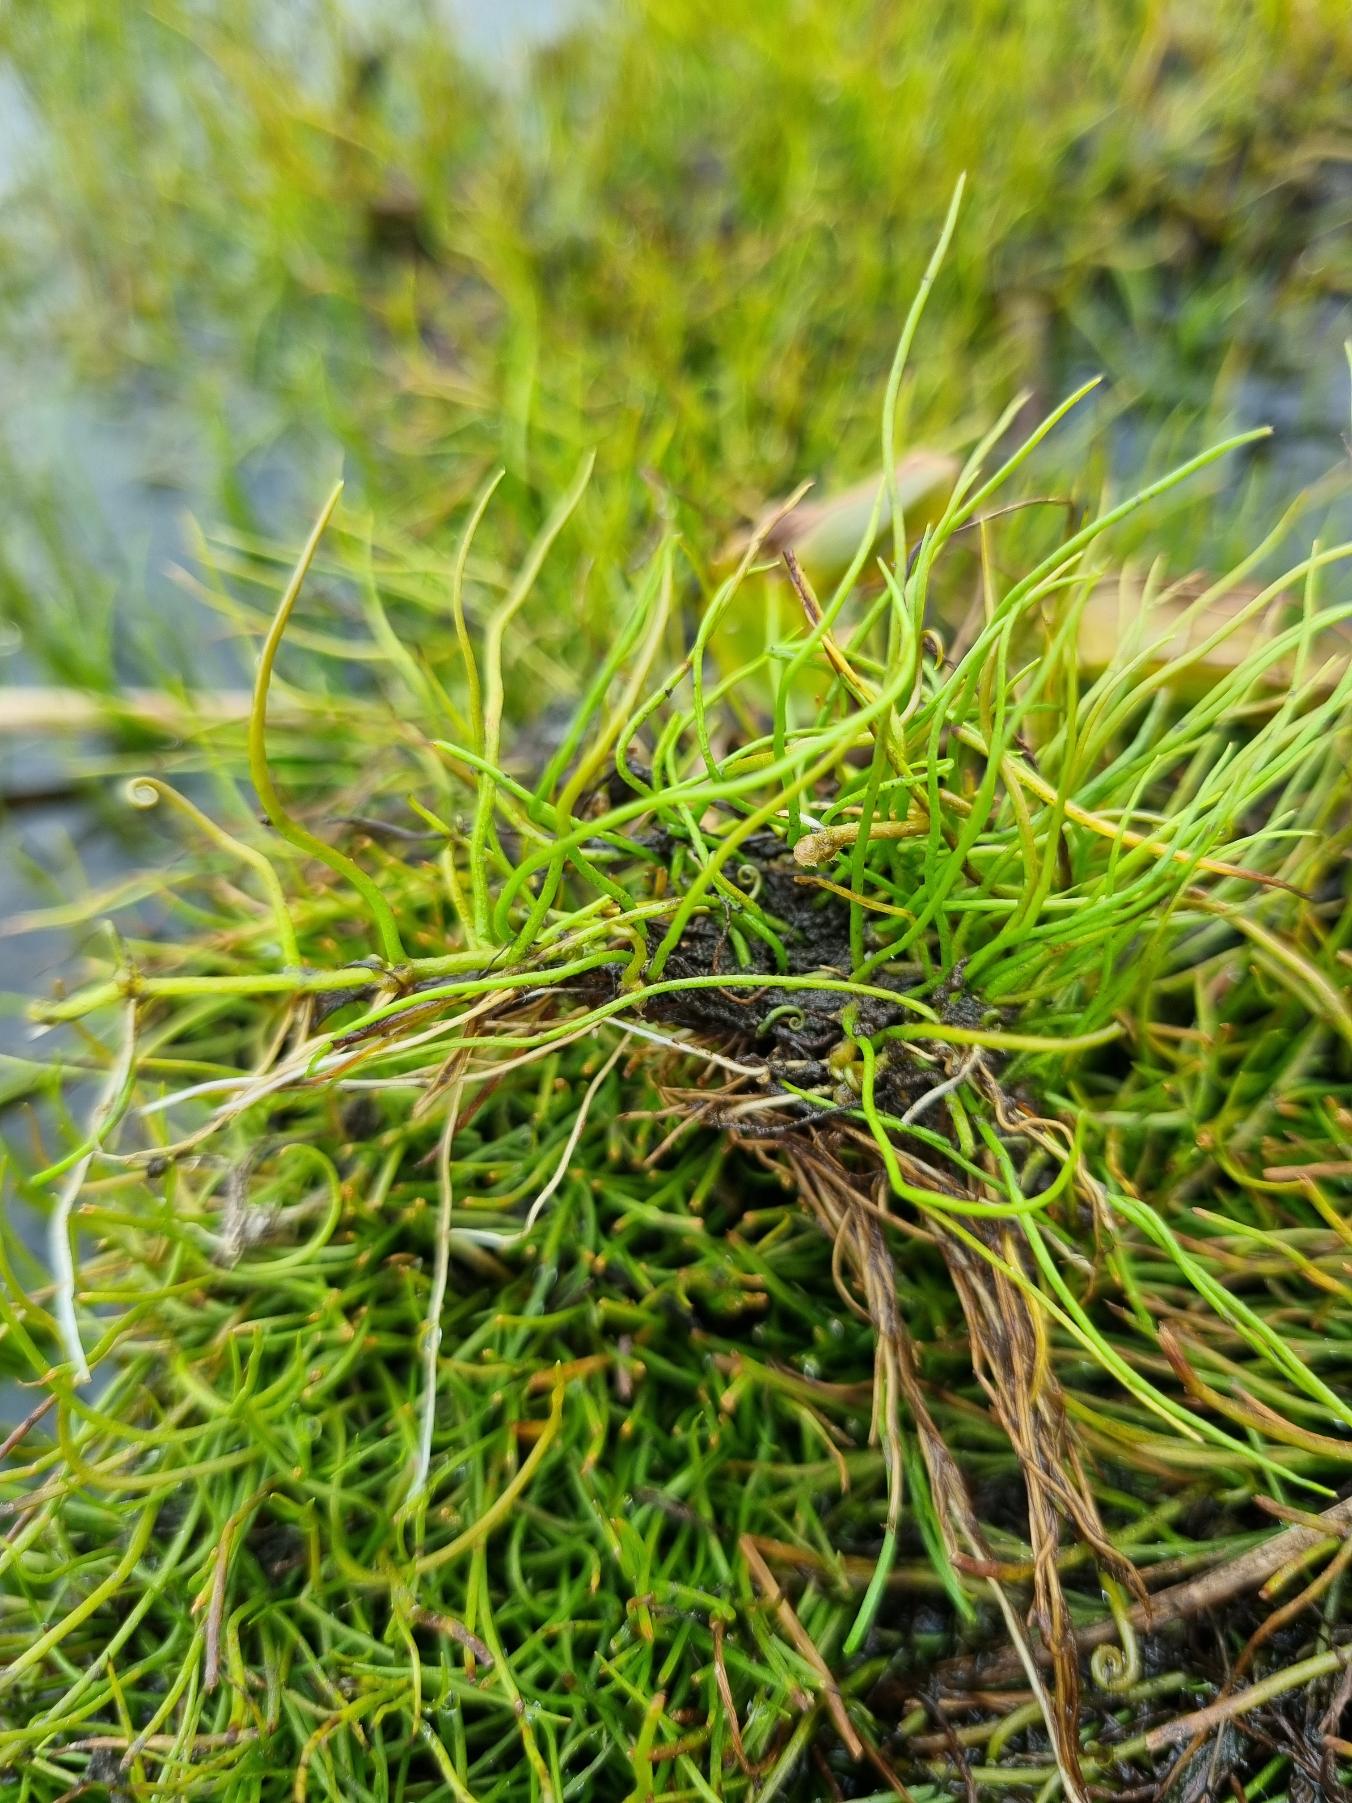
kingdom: Plantae
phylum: Tracheophyta
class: Polypodiopsida
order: Salviniales
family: Marsileaceae
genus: Pilularia
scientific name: Pilularia globulifera
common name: Pilledrager
